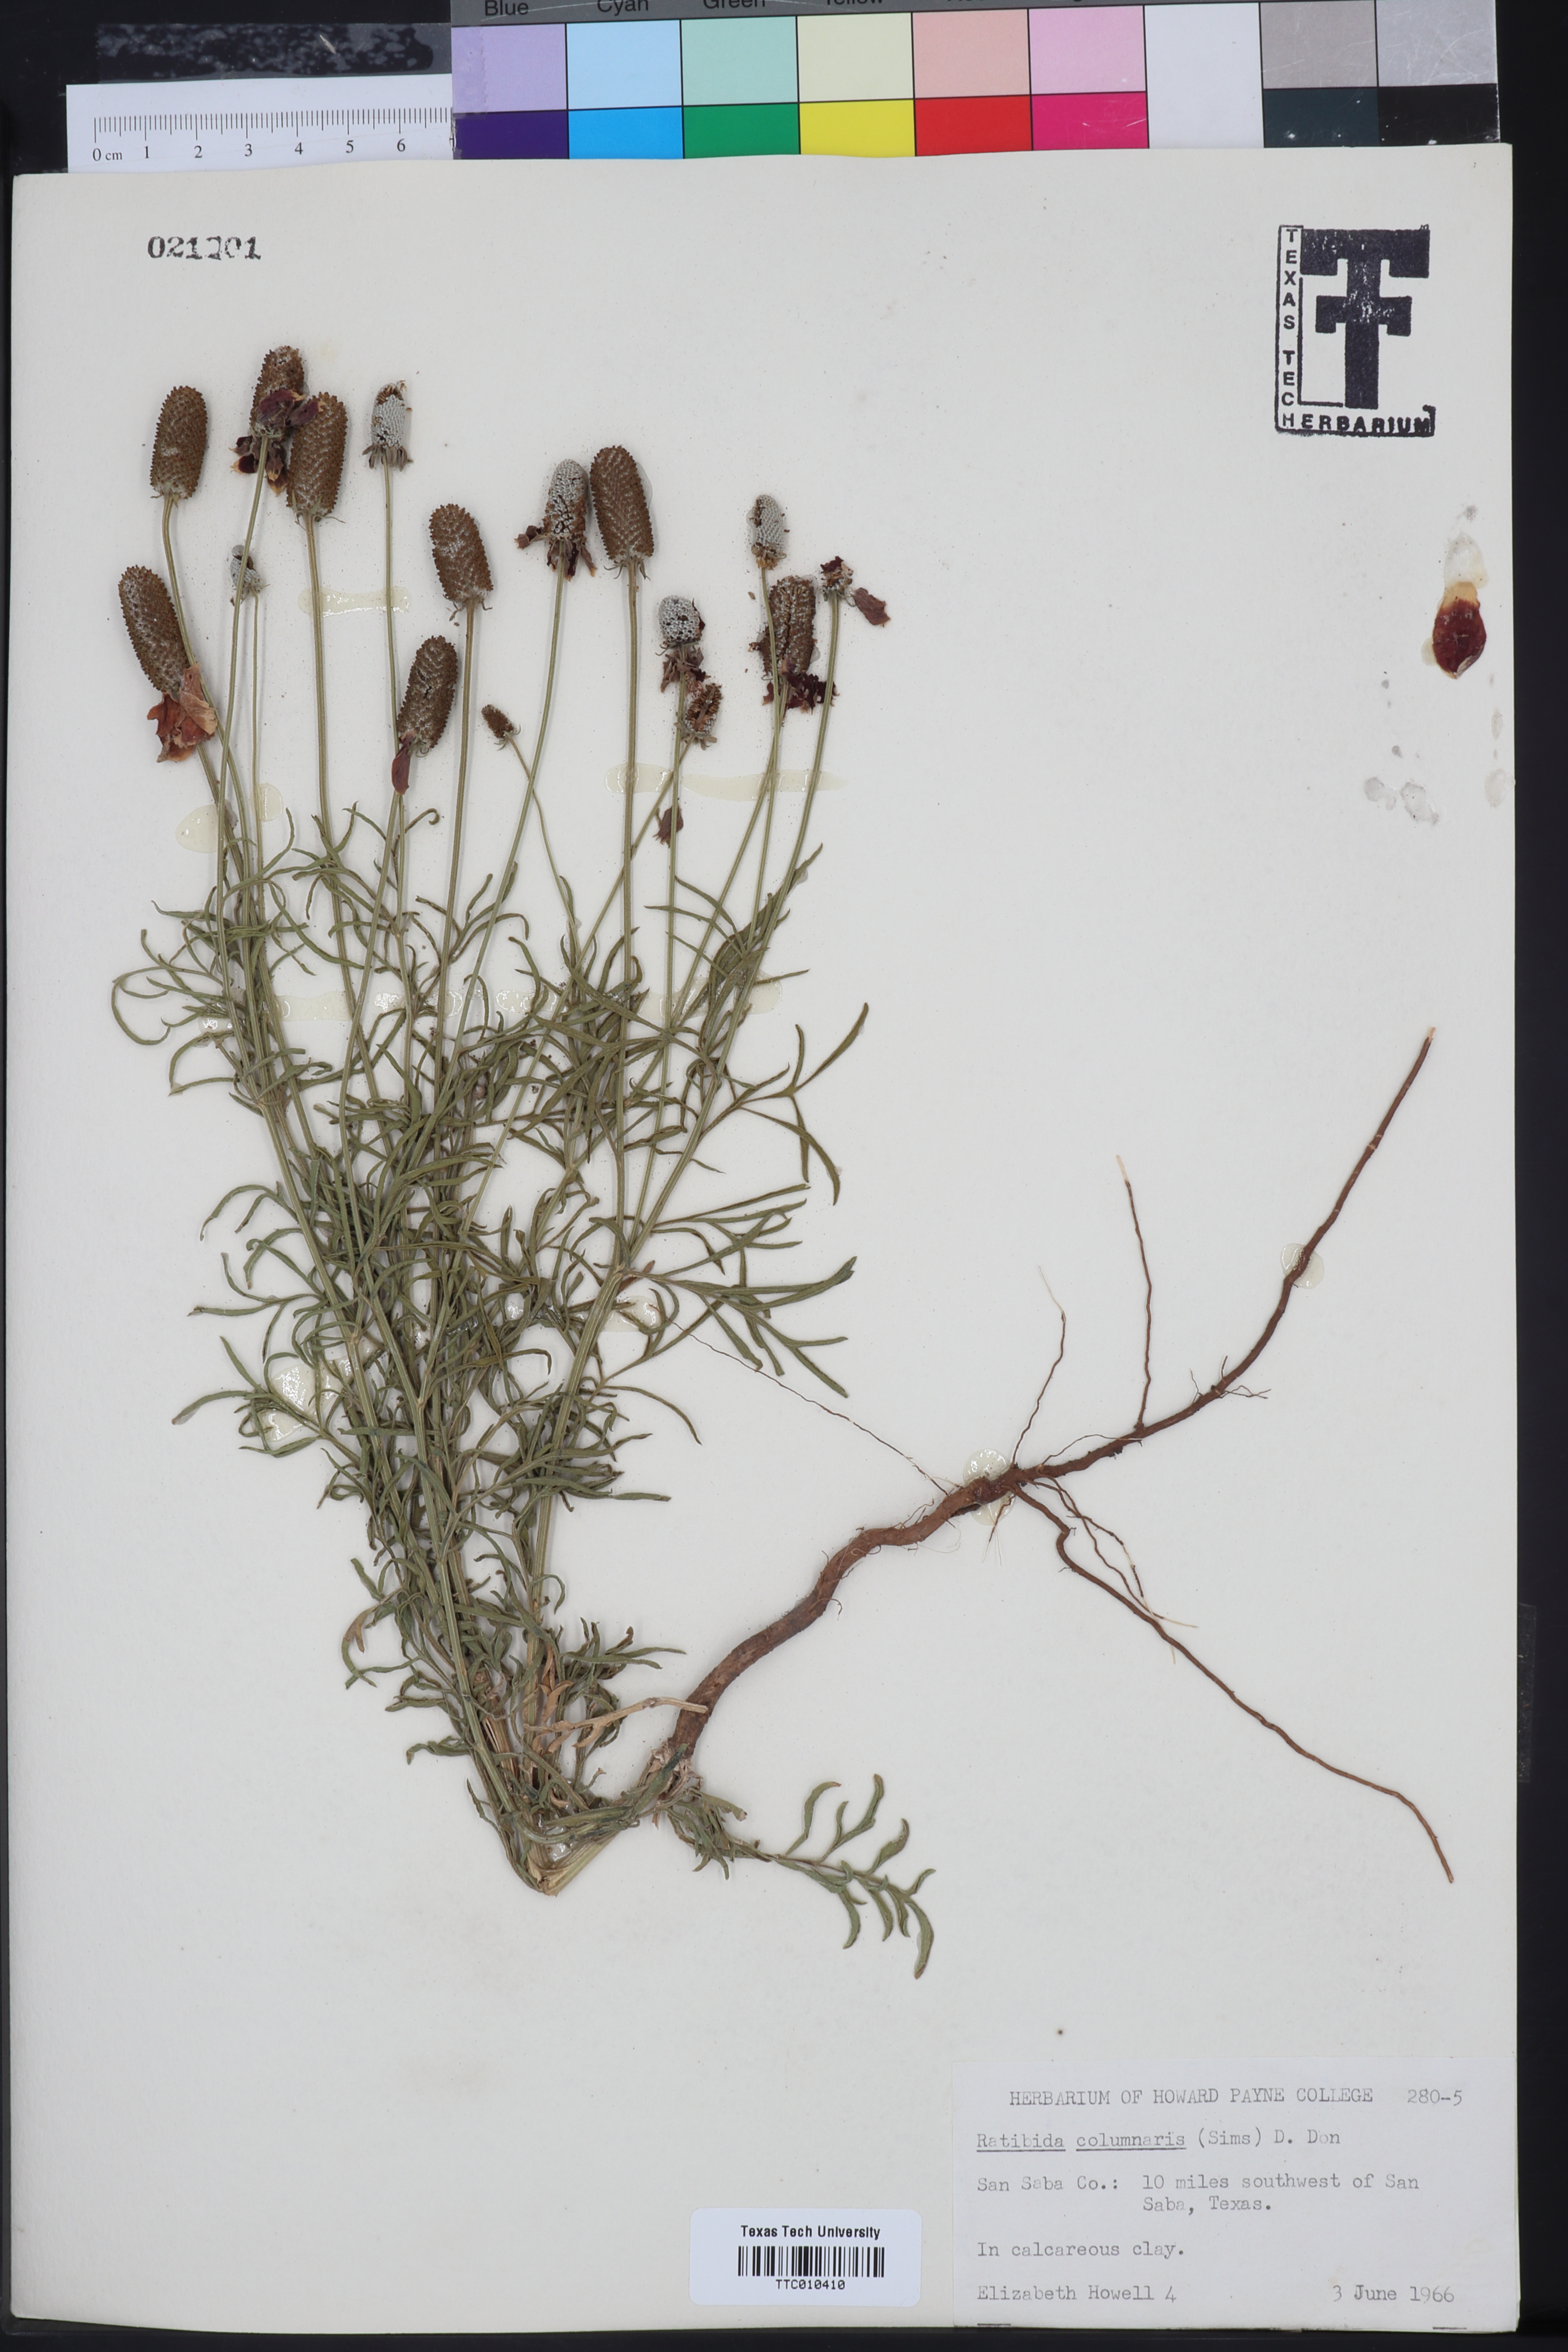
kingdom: Plantae
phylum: Tracheophyta
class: Magnoliopsida
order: Asterales
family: Asteraceae
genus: Ratibida
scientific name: Ratibida columnifera
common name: Prairie coneflower
